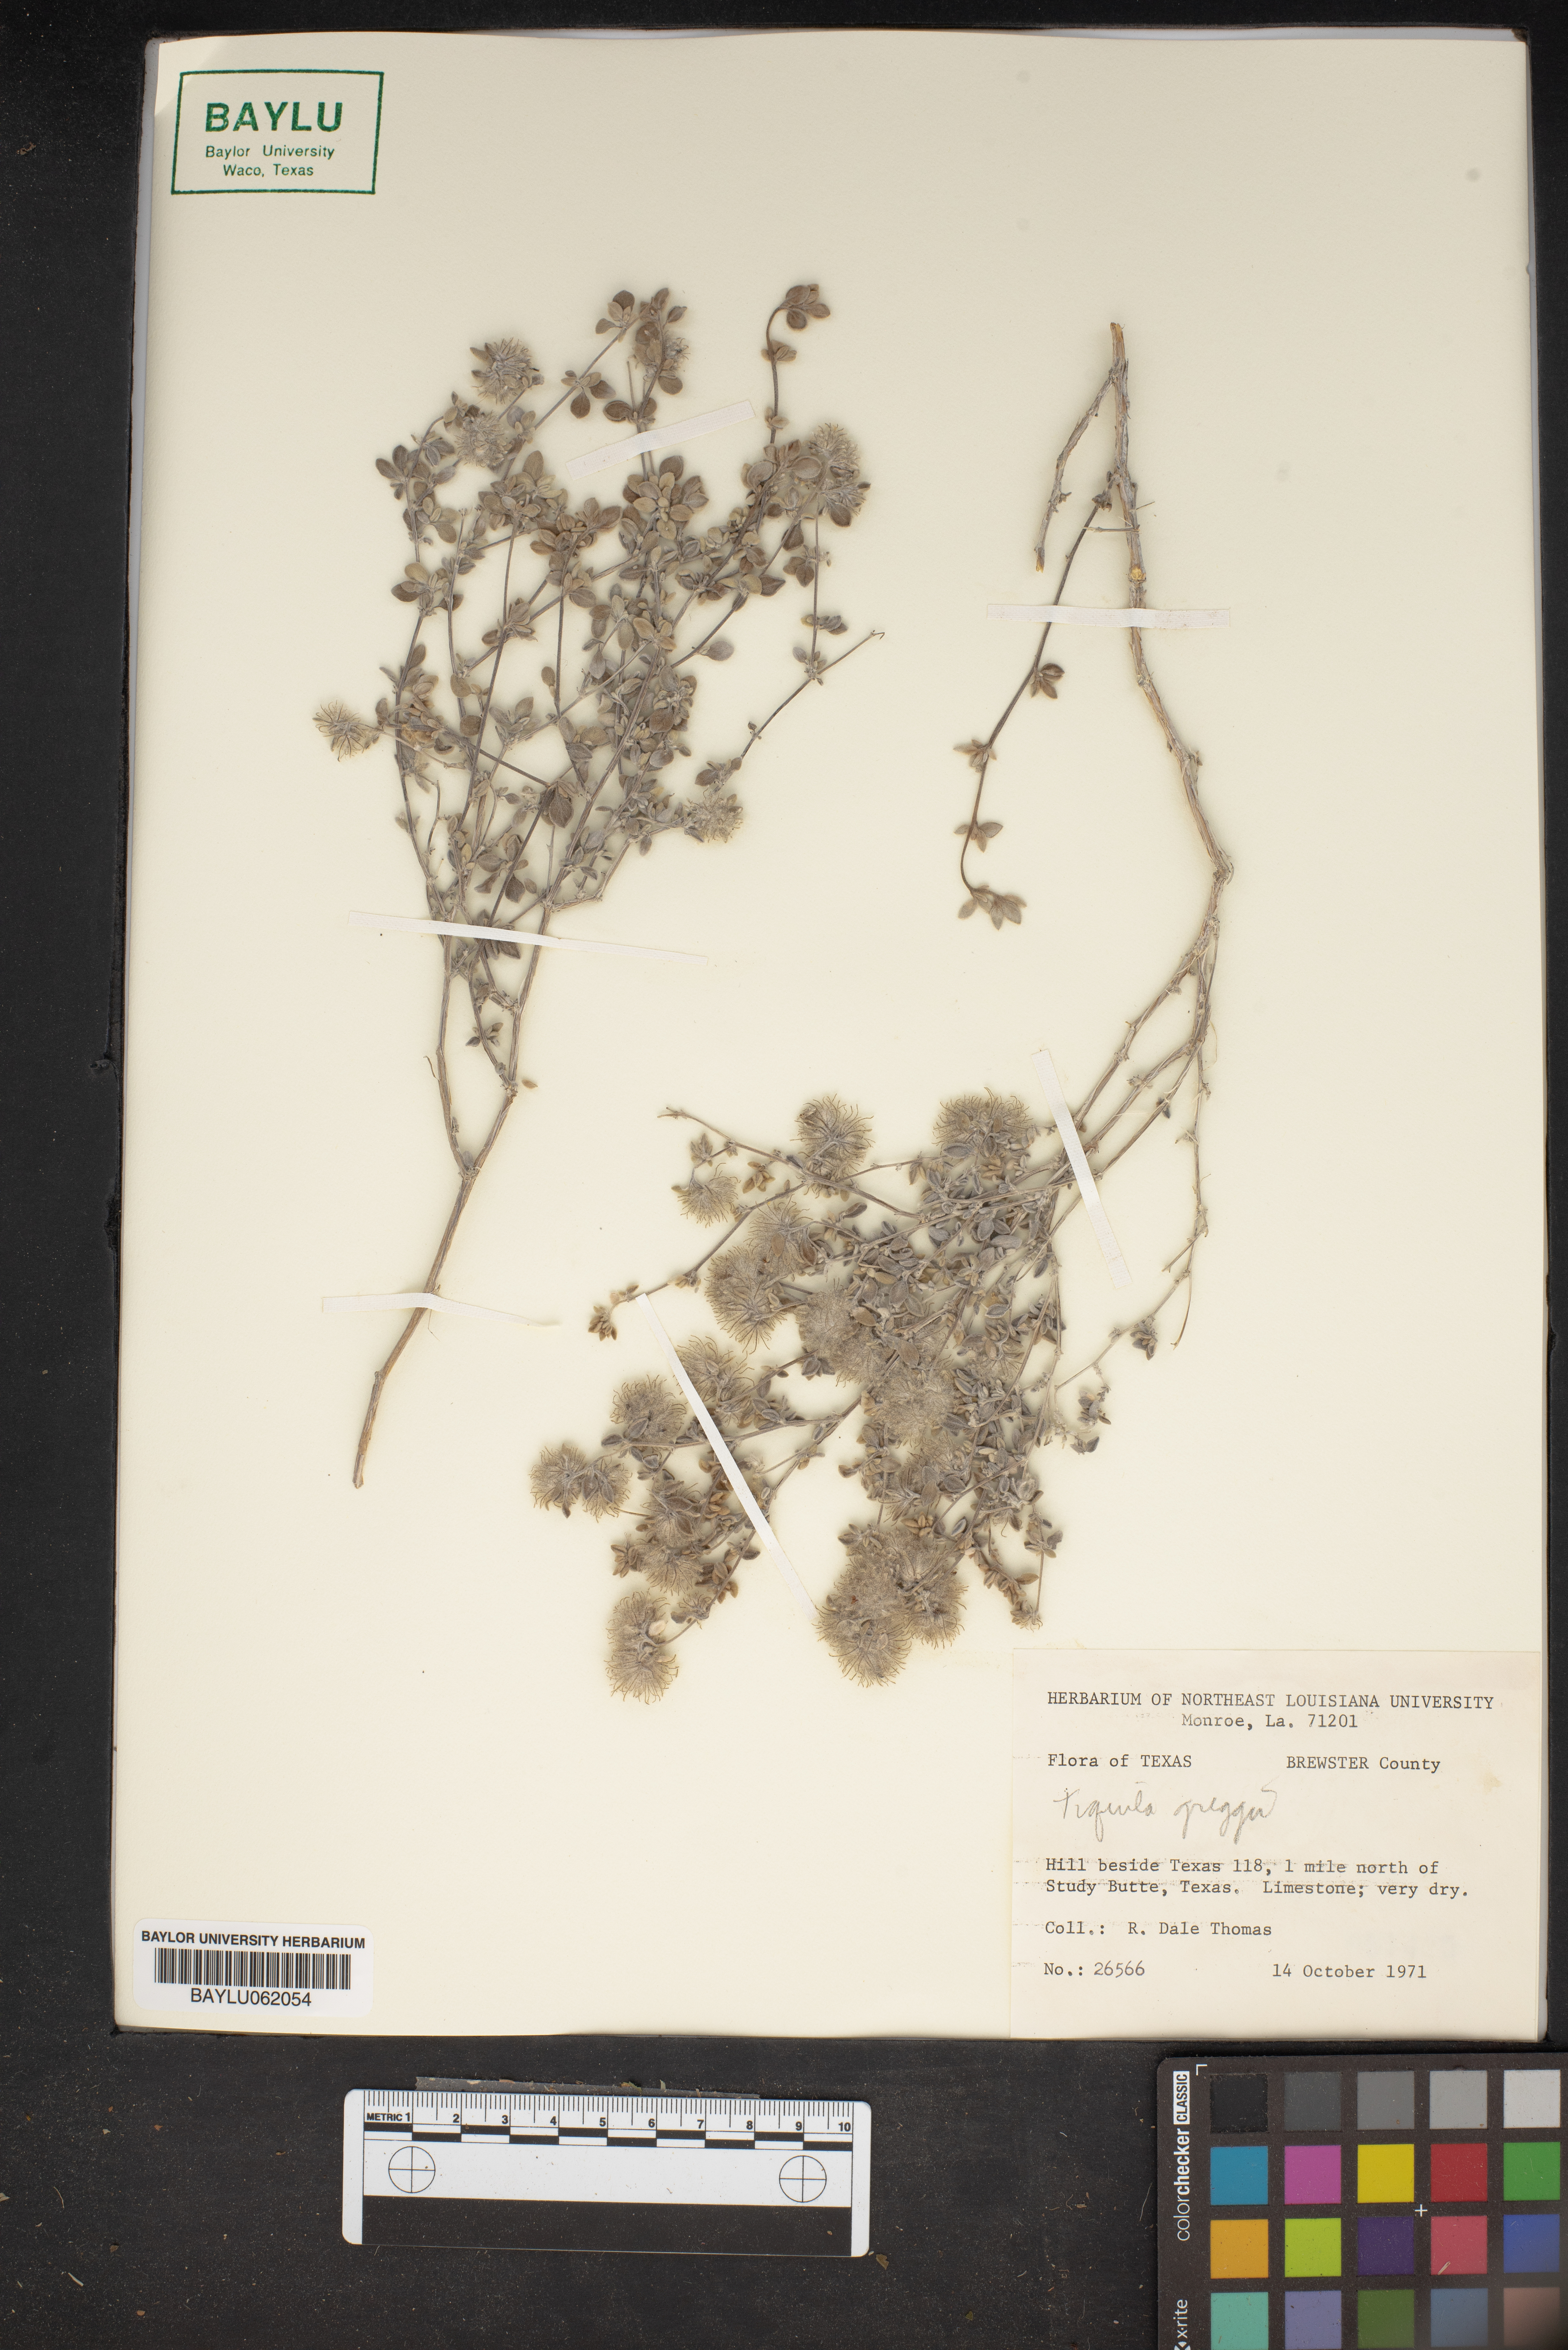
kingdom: Plantae
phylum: Tracheophyta
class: Magnoliopsida
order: Boraginales
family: Ehretiaceae
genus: Tiquilia
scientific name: Tiquilia greggii
